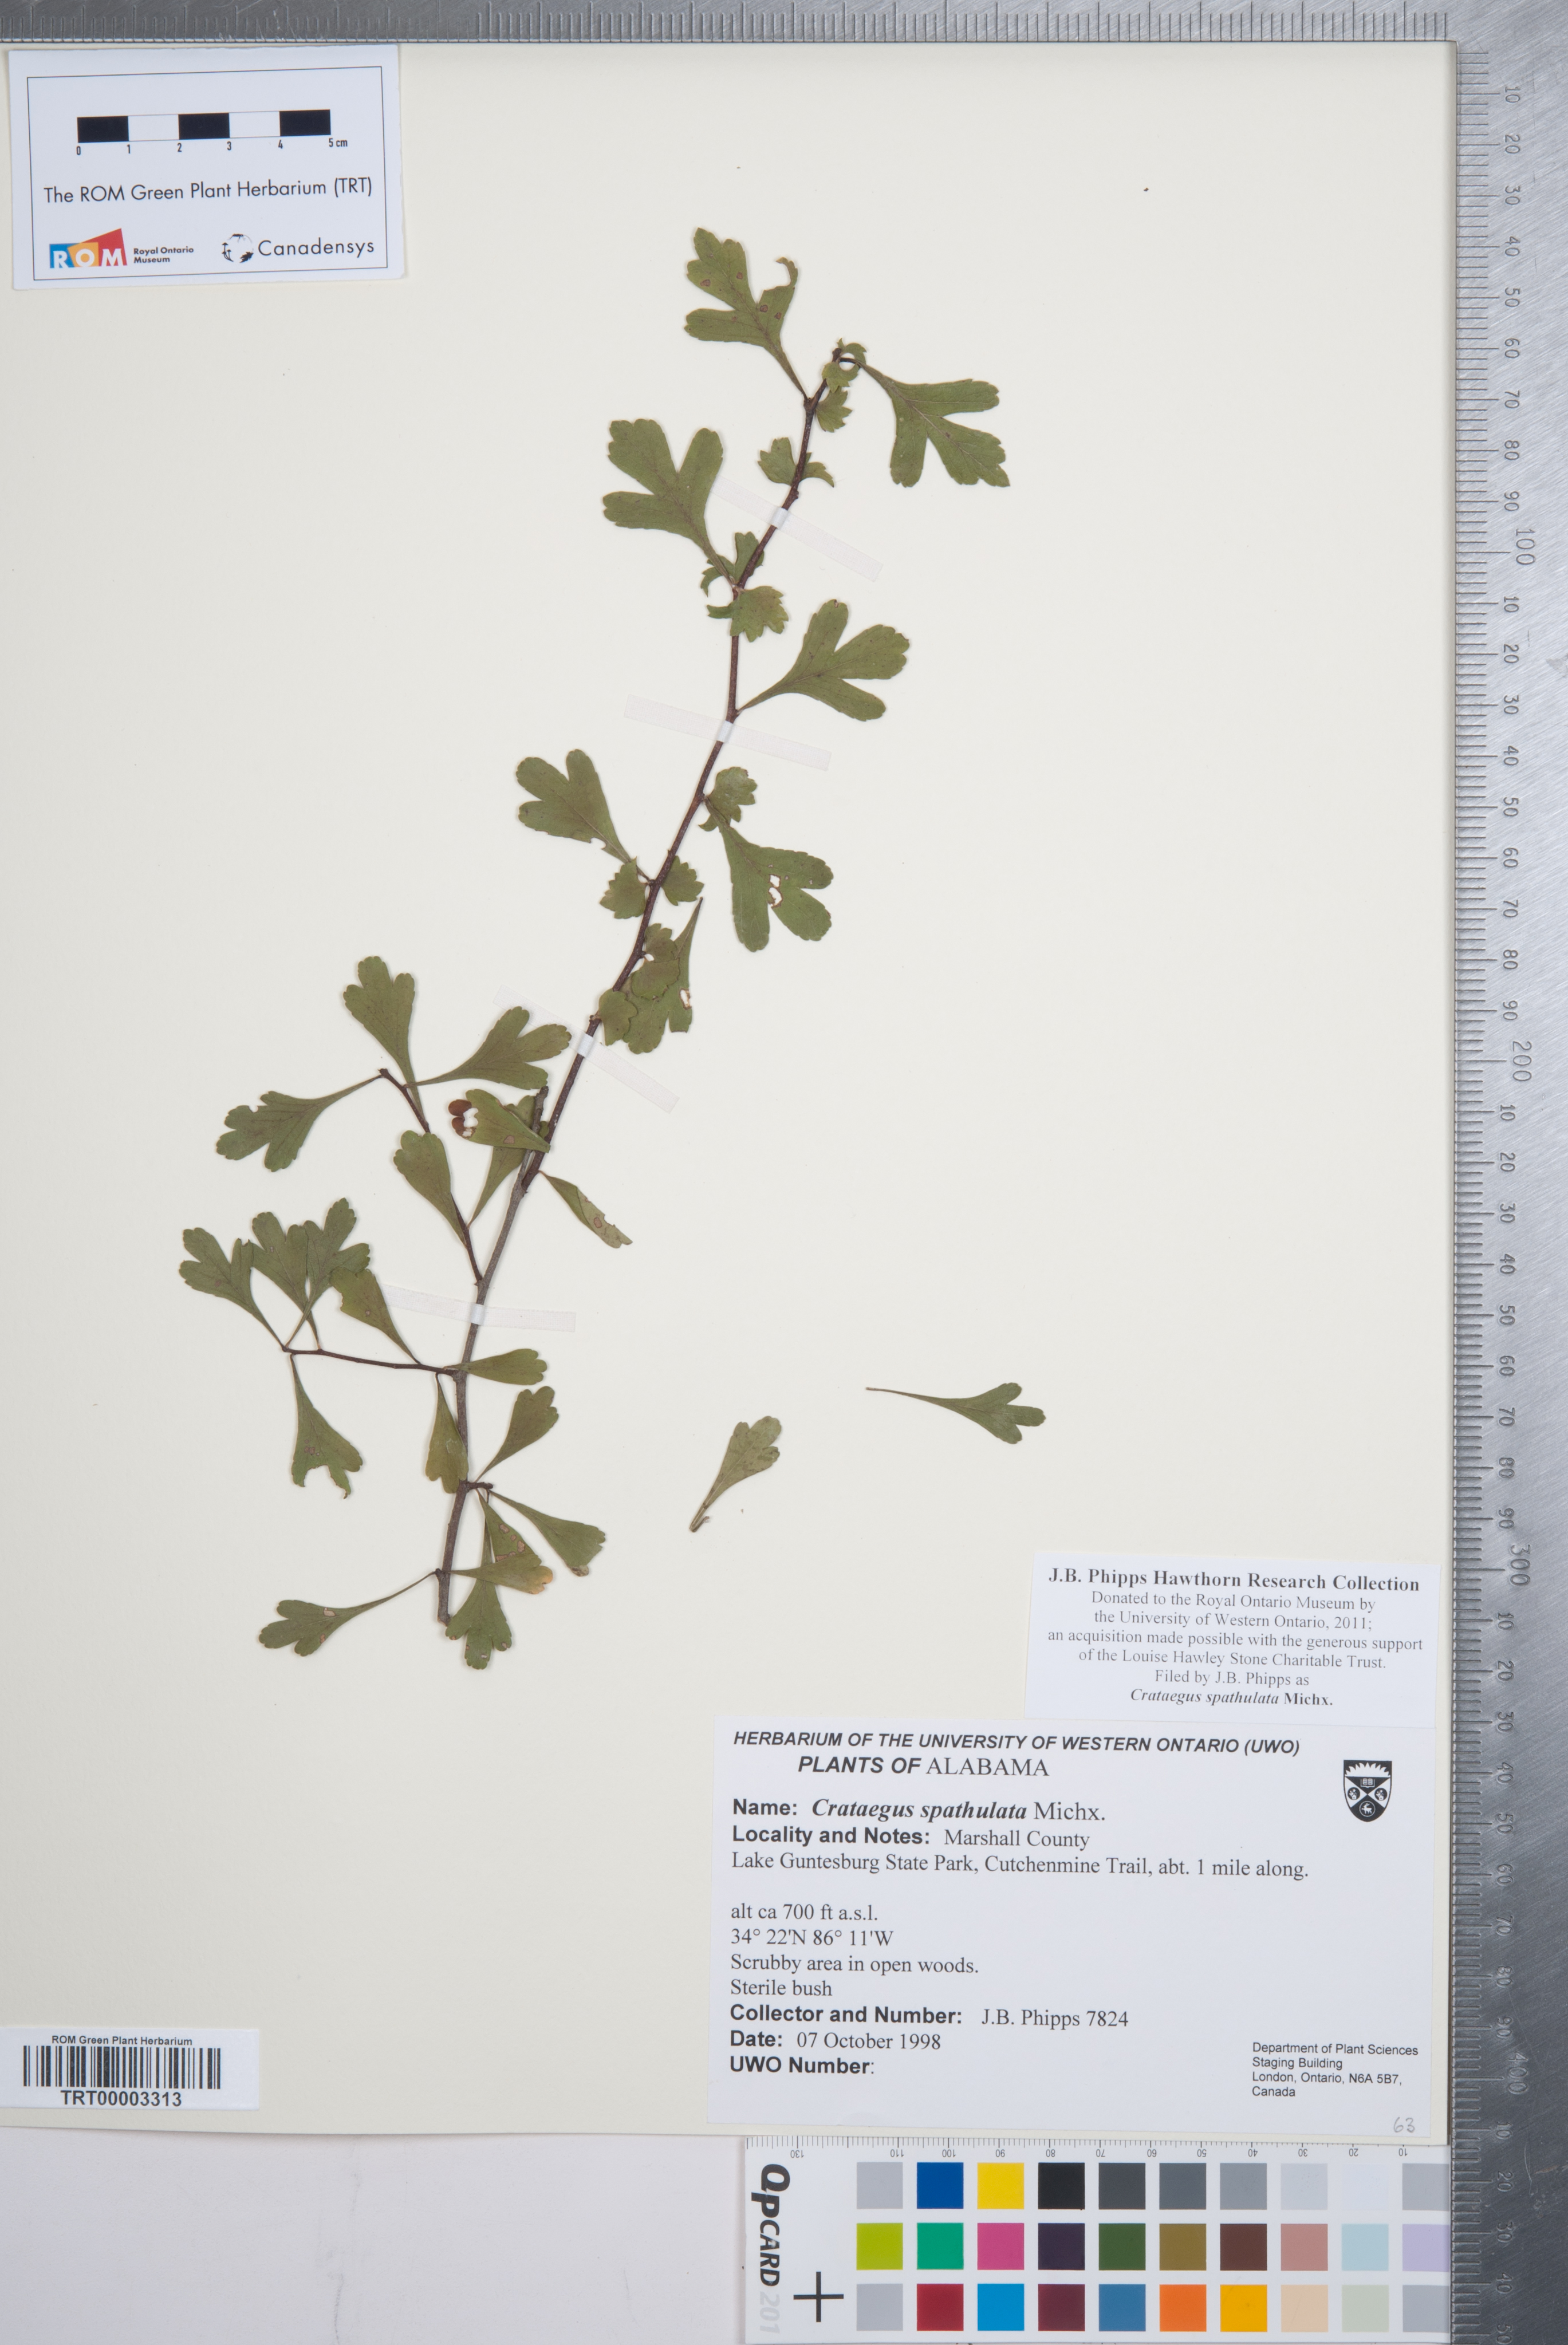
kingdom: Plantae
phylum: Tracheophyta
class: Magnoliopsida
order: Rosales
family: Rosaceae
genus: Crataegus
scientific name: Crataegus spathulata
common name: Littlehip hawthorn
